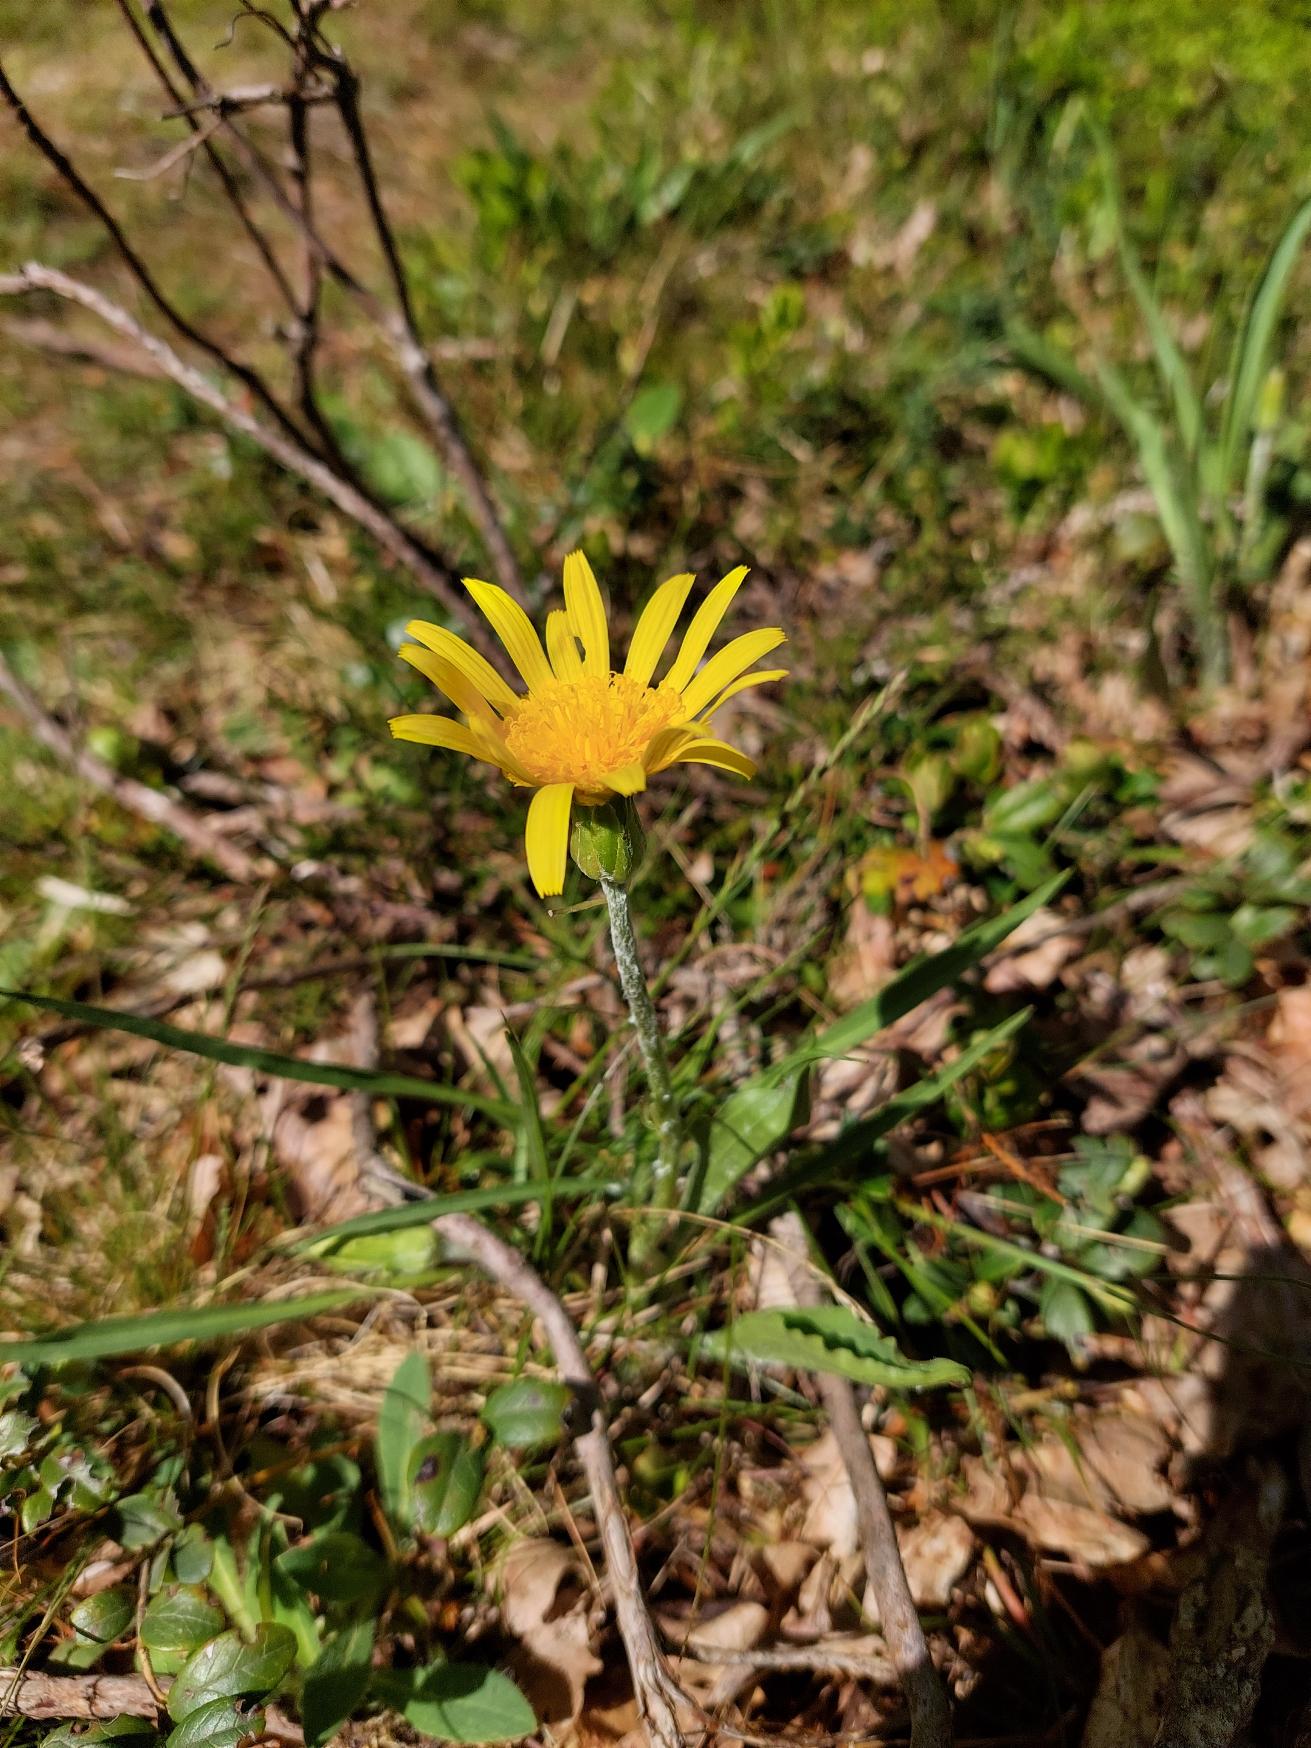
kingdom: Plantae
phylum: Tracheophyta
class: Magnoliopsida
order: Asterales
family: Asteraceae
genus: Scorzonera
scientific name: Scorzonera humilis
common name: Lav skorsoner
